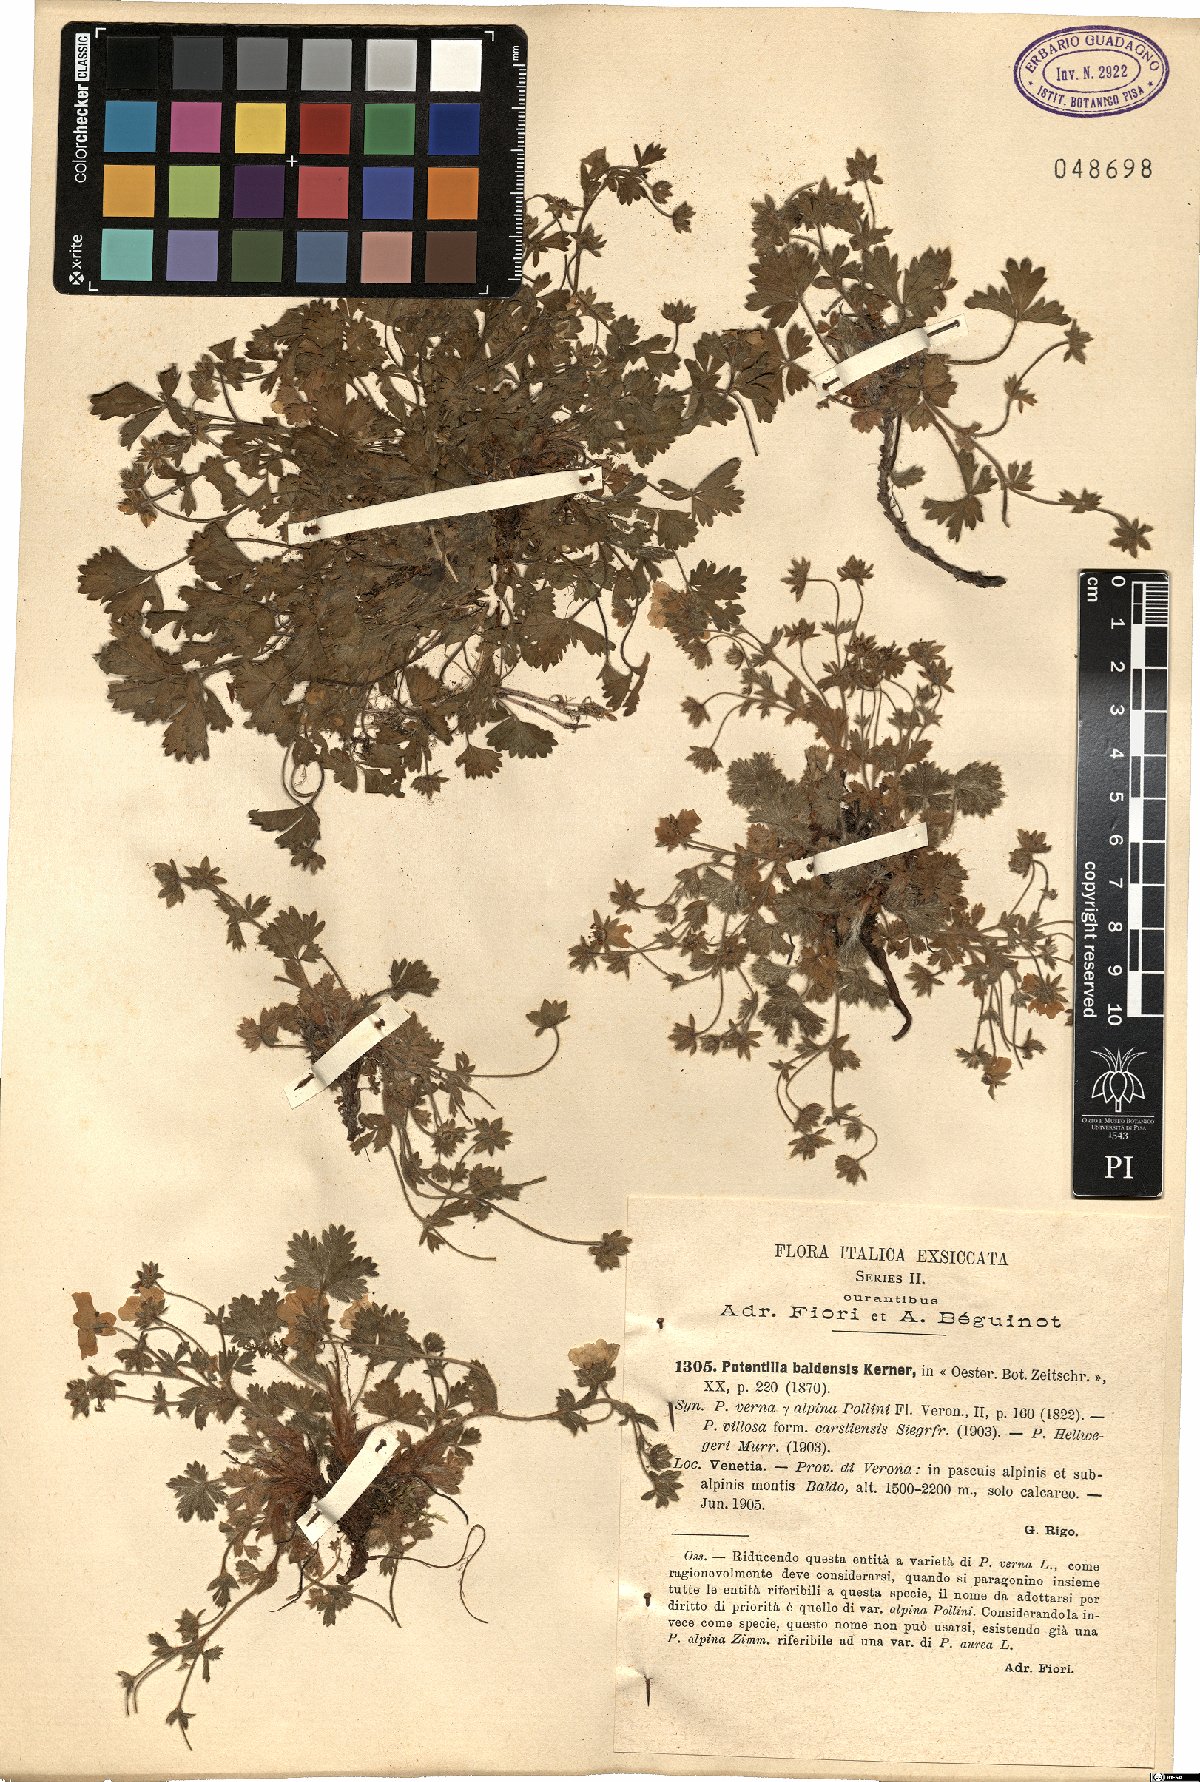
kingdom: Plantae
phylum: Tracheophyta
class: Magnoliopsida
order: Rosales
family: Rosaceae
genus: Potentilla
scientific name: Potentilla crantzii
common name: Alpine cinquefoil
